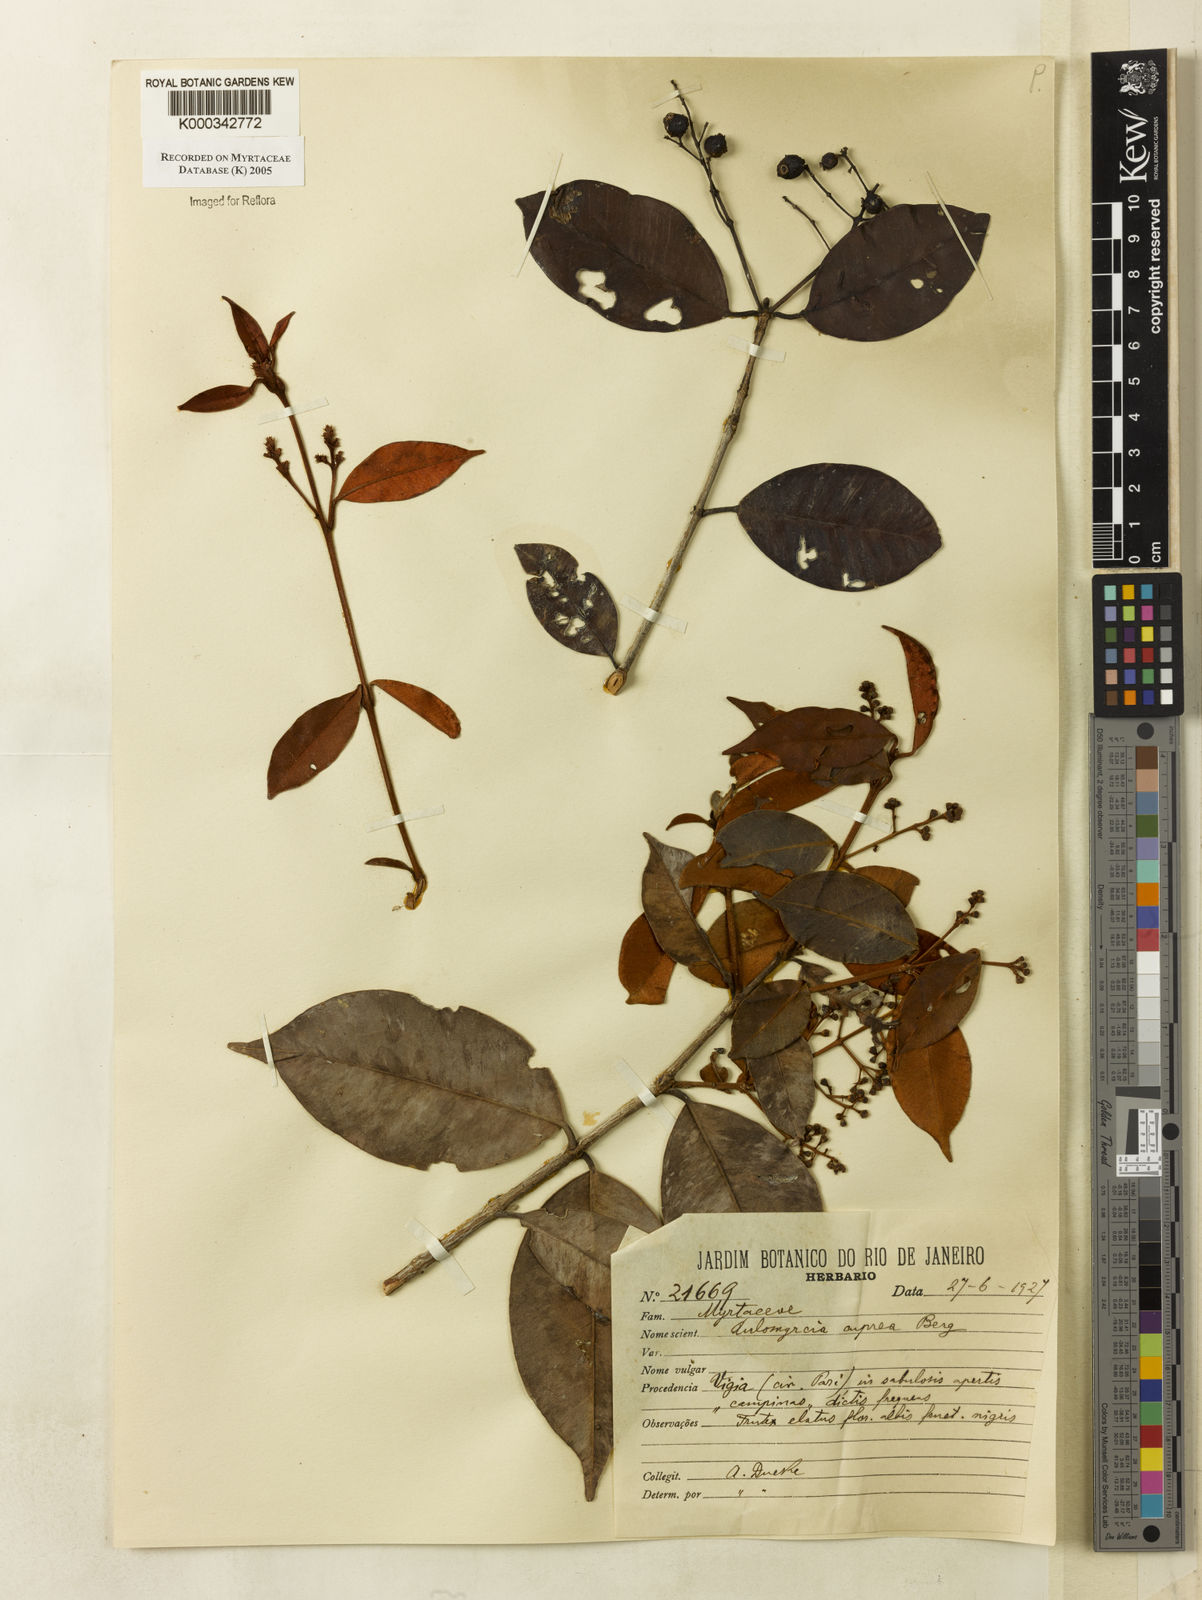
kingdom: Plantae
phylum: Tracheophyta
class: Magnoliopsida
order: Myrtales
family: Myrtaceae
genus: Myrcia
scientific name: Myrcia cuprea
